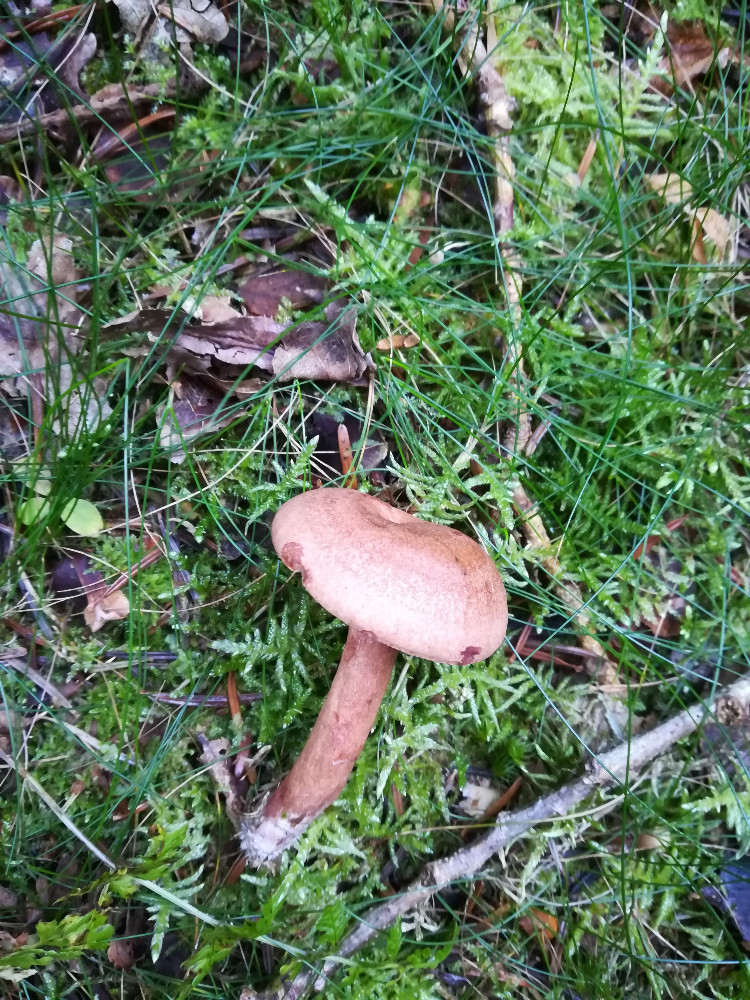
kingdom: Fungi
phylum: Basidiomycota
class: Agaricomycetes
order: Russulales
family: Russulaceae
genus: Lactarius
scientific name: Lactarius quietus
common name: ege-mælkehat
